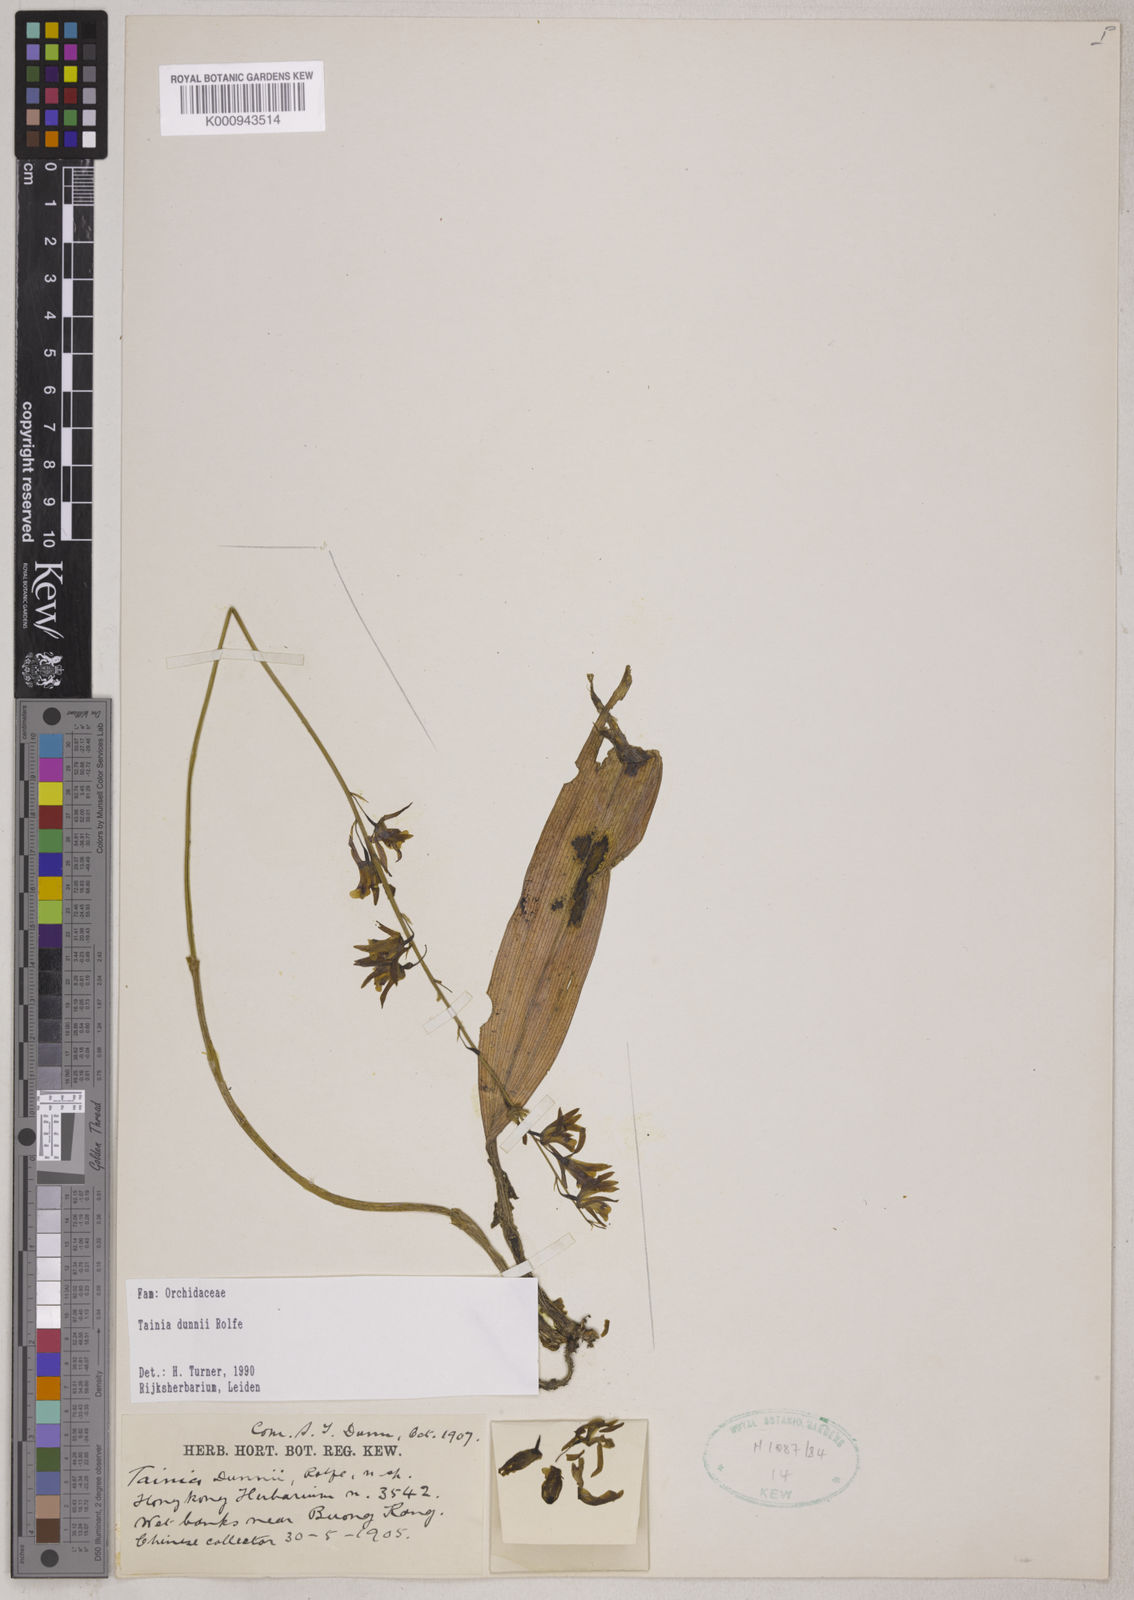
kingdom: Plantae
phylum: Tracheophyta
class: Liliopsida
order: Asparagales
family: Orchidaceae
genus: Tainia
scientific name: Tainia dunnii
